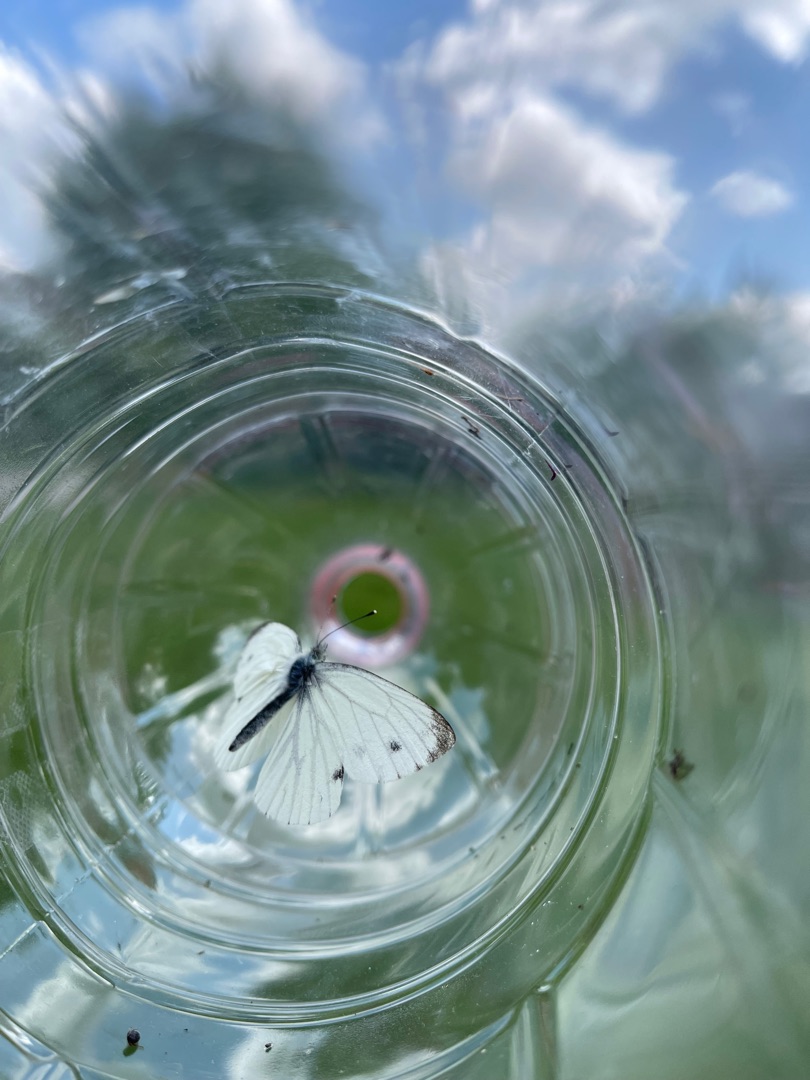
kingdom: Animalia
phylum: Arthropoda
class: Insecta
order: Lepidoptera
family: Pieridae
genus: Pieris
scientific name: Pieris napi
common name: Grønåret kålsommerfugl
